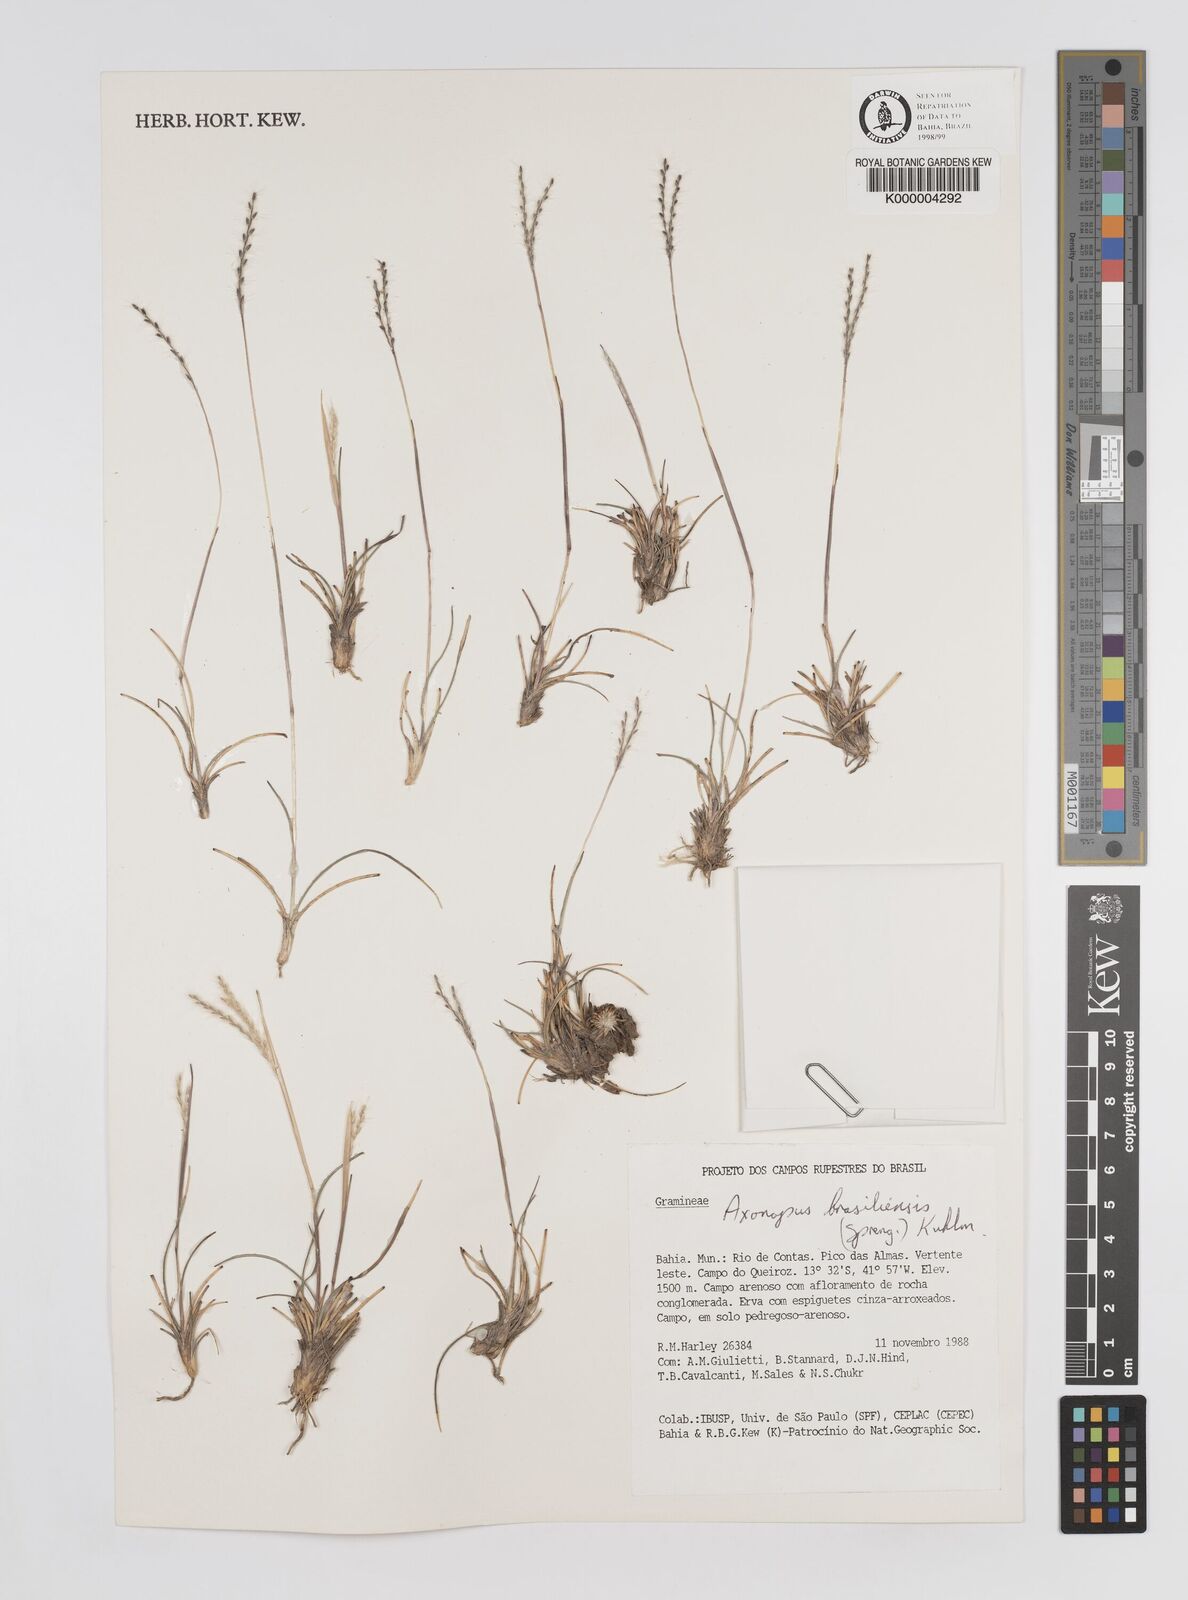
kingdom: Plantae
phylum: Tracheophyta
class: Liliopsida
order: Poales
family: Poaceae
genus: Axonopus
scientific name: Axonopus brasiliensis
